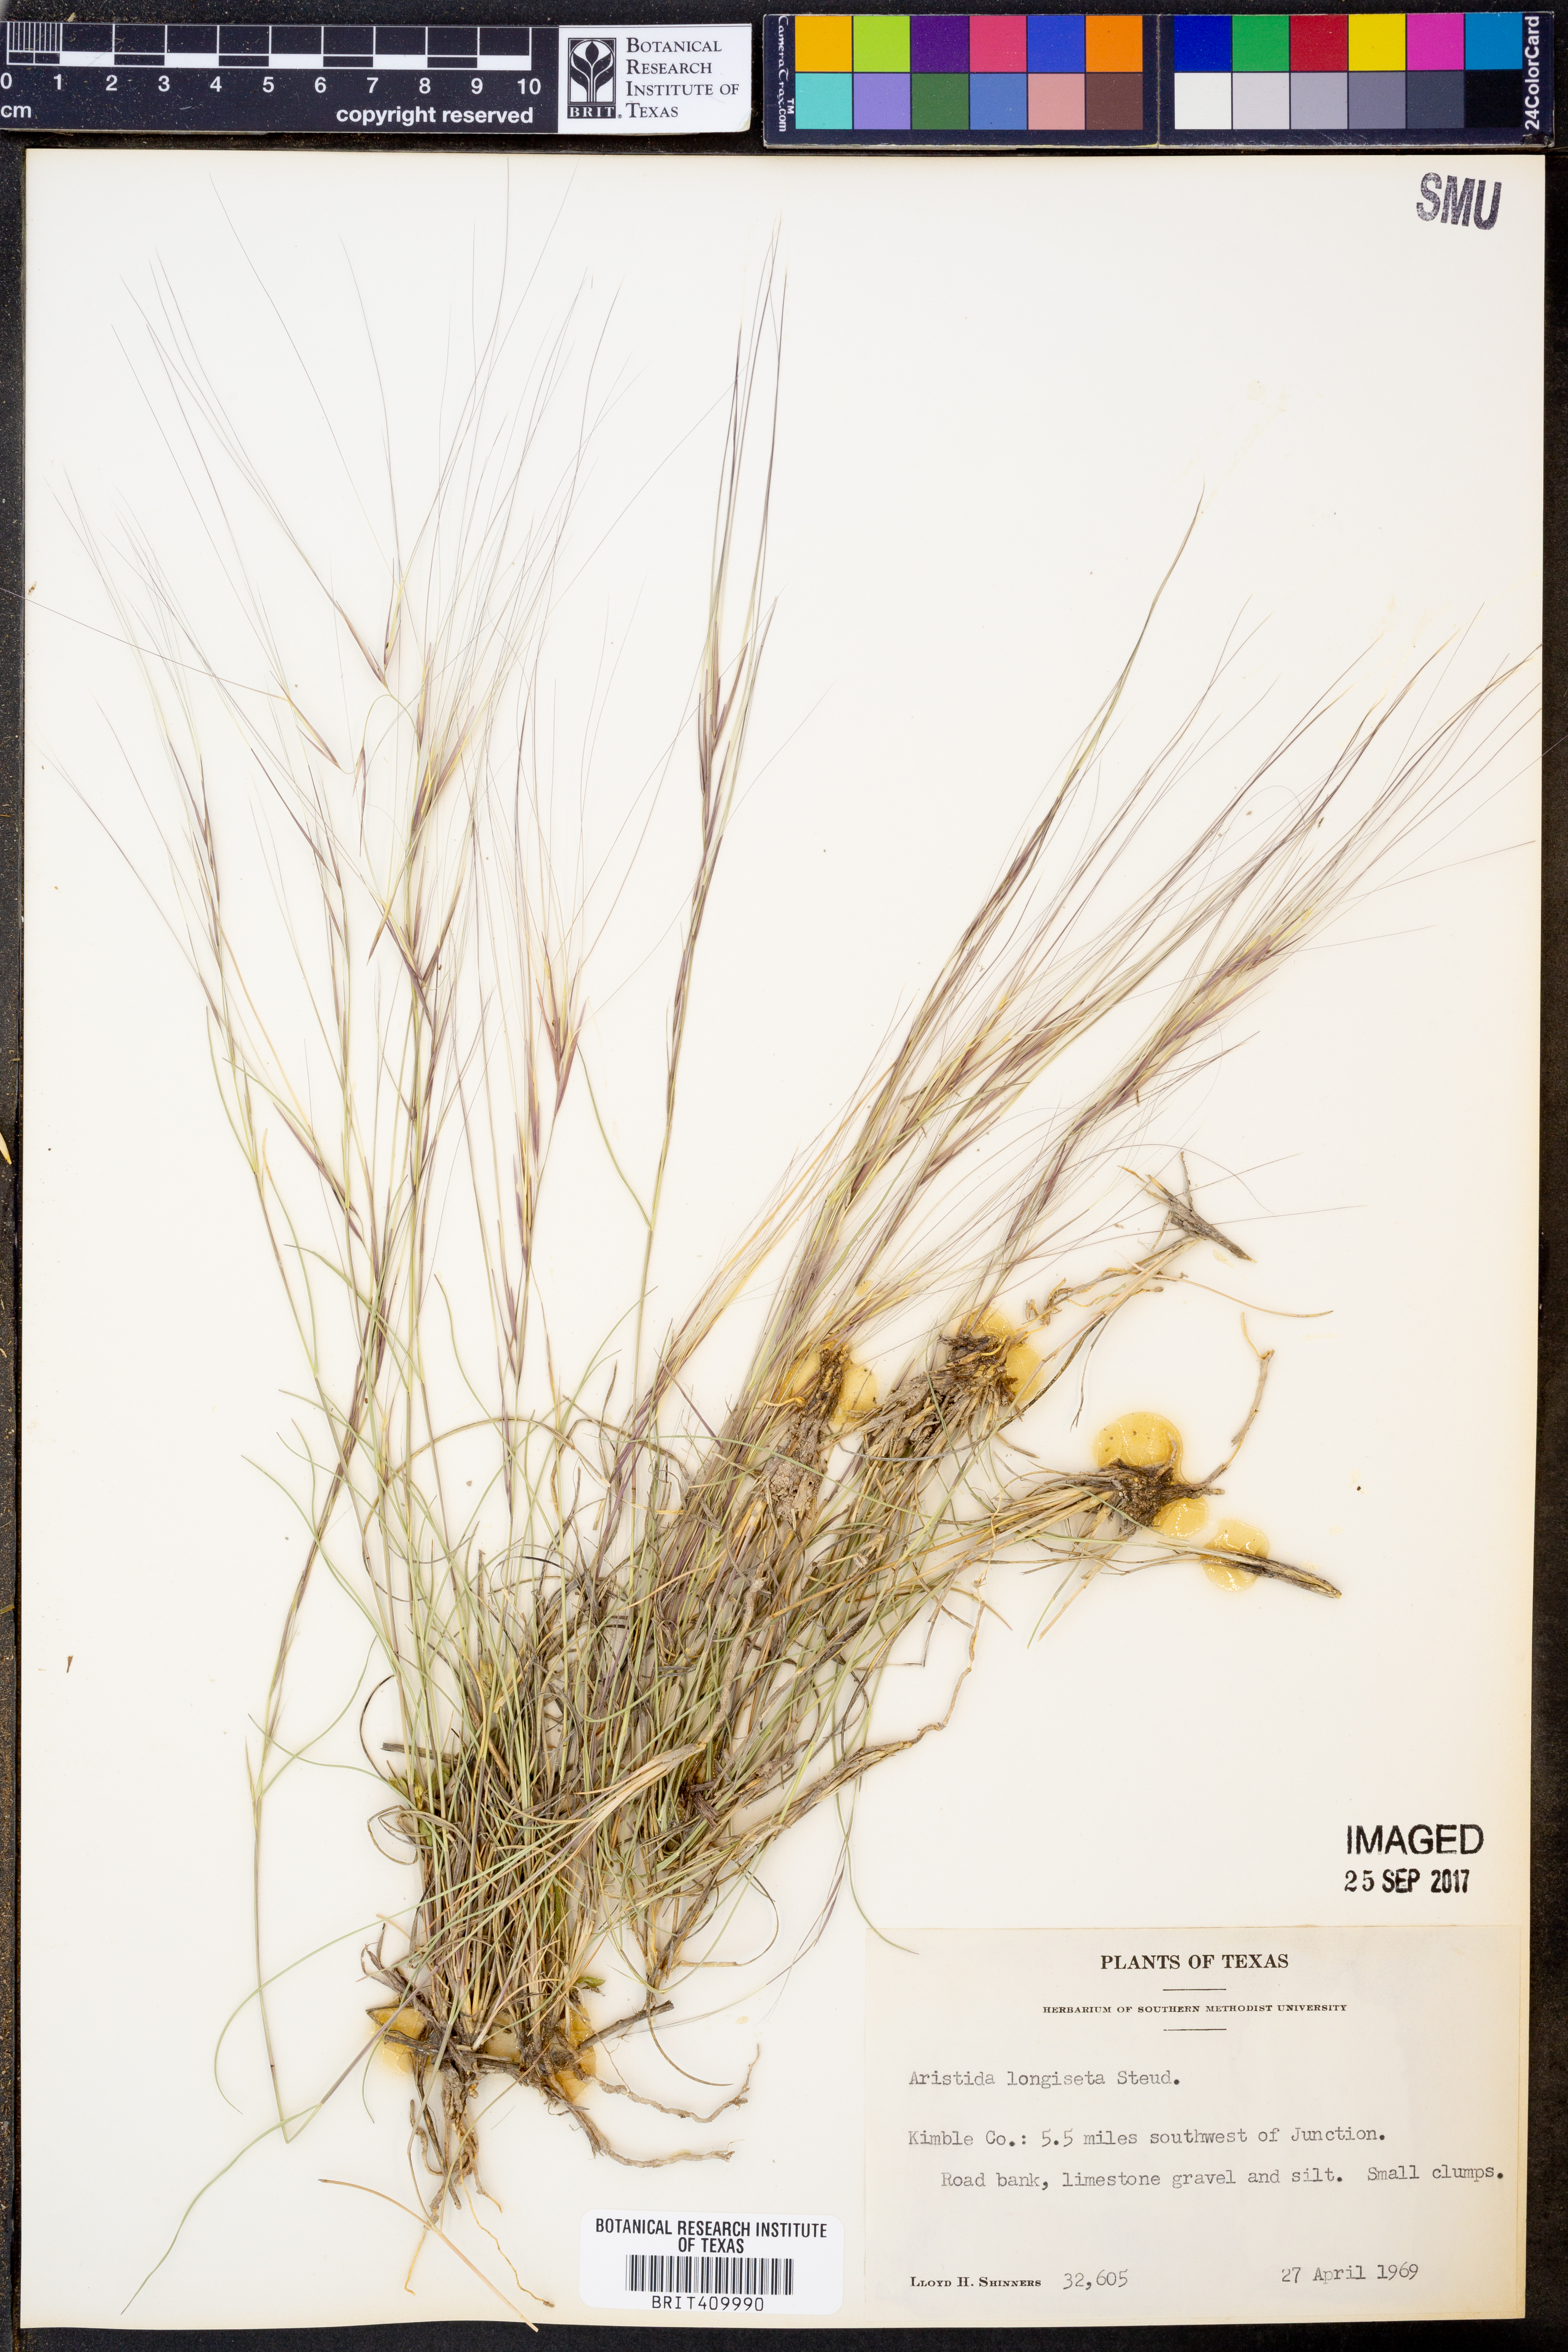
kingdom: Plantae
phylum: Tracheophyta
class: Liliopsida
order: Poales
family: Poaceae
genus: Aristida
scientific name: Aristida longiseta
